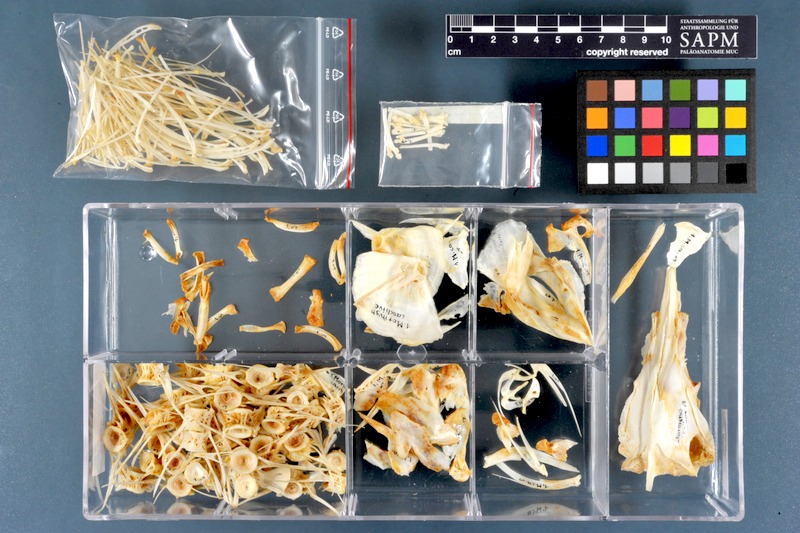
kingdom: Animalia
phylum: Chordata
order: Osteoglossiformes
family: Mormyridae
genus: Mormyrus
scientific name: Mormyrus caschive
